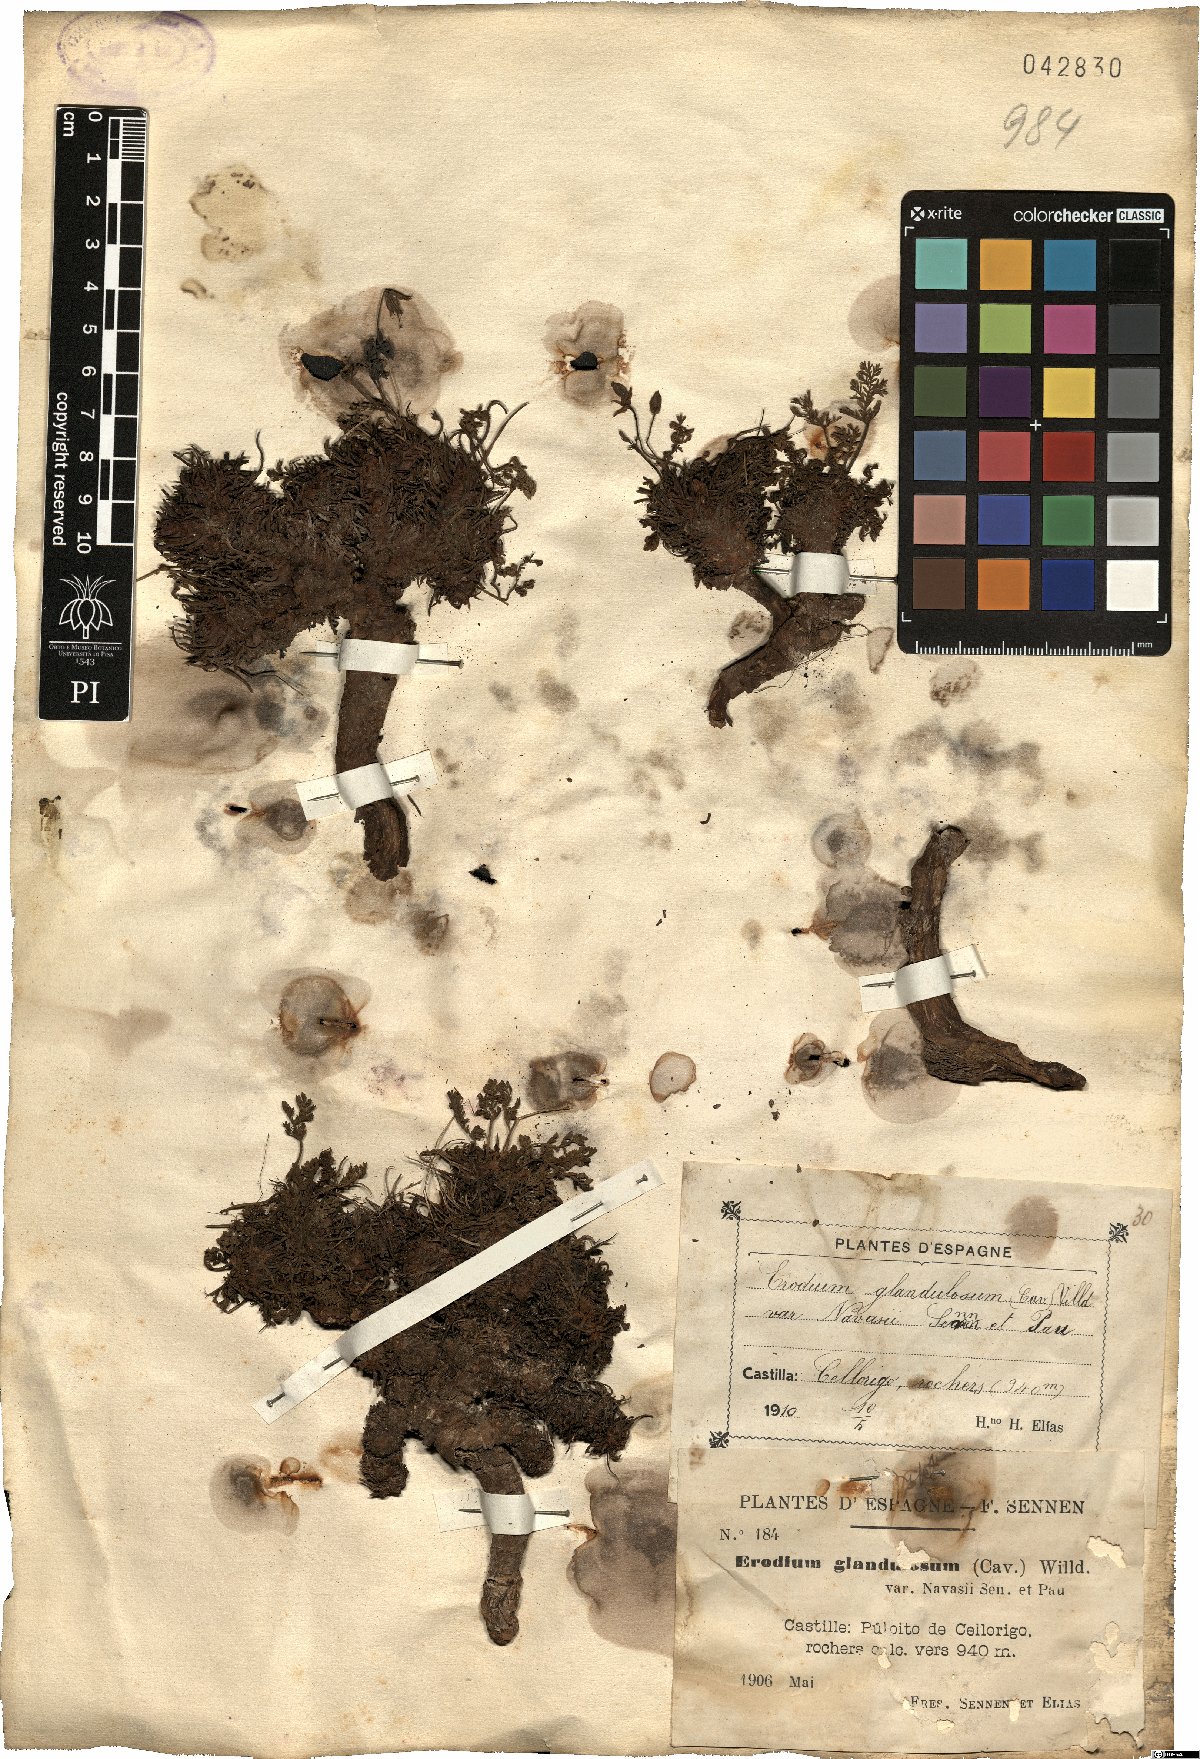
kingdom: Plantae
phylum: Tracheophyta
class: Magnoliopsida
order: Geraniales
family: Geraniaceae
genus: Erodium
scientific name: Erodium glandulosum
